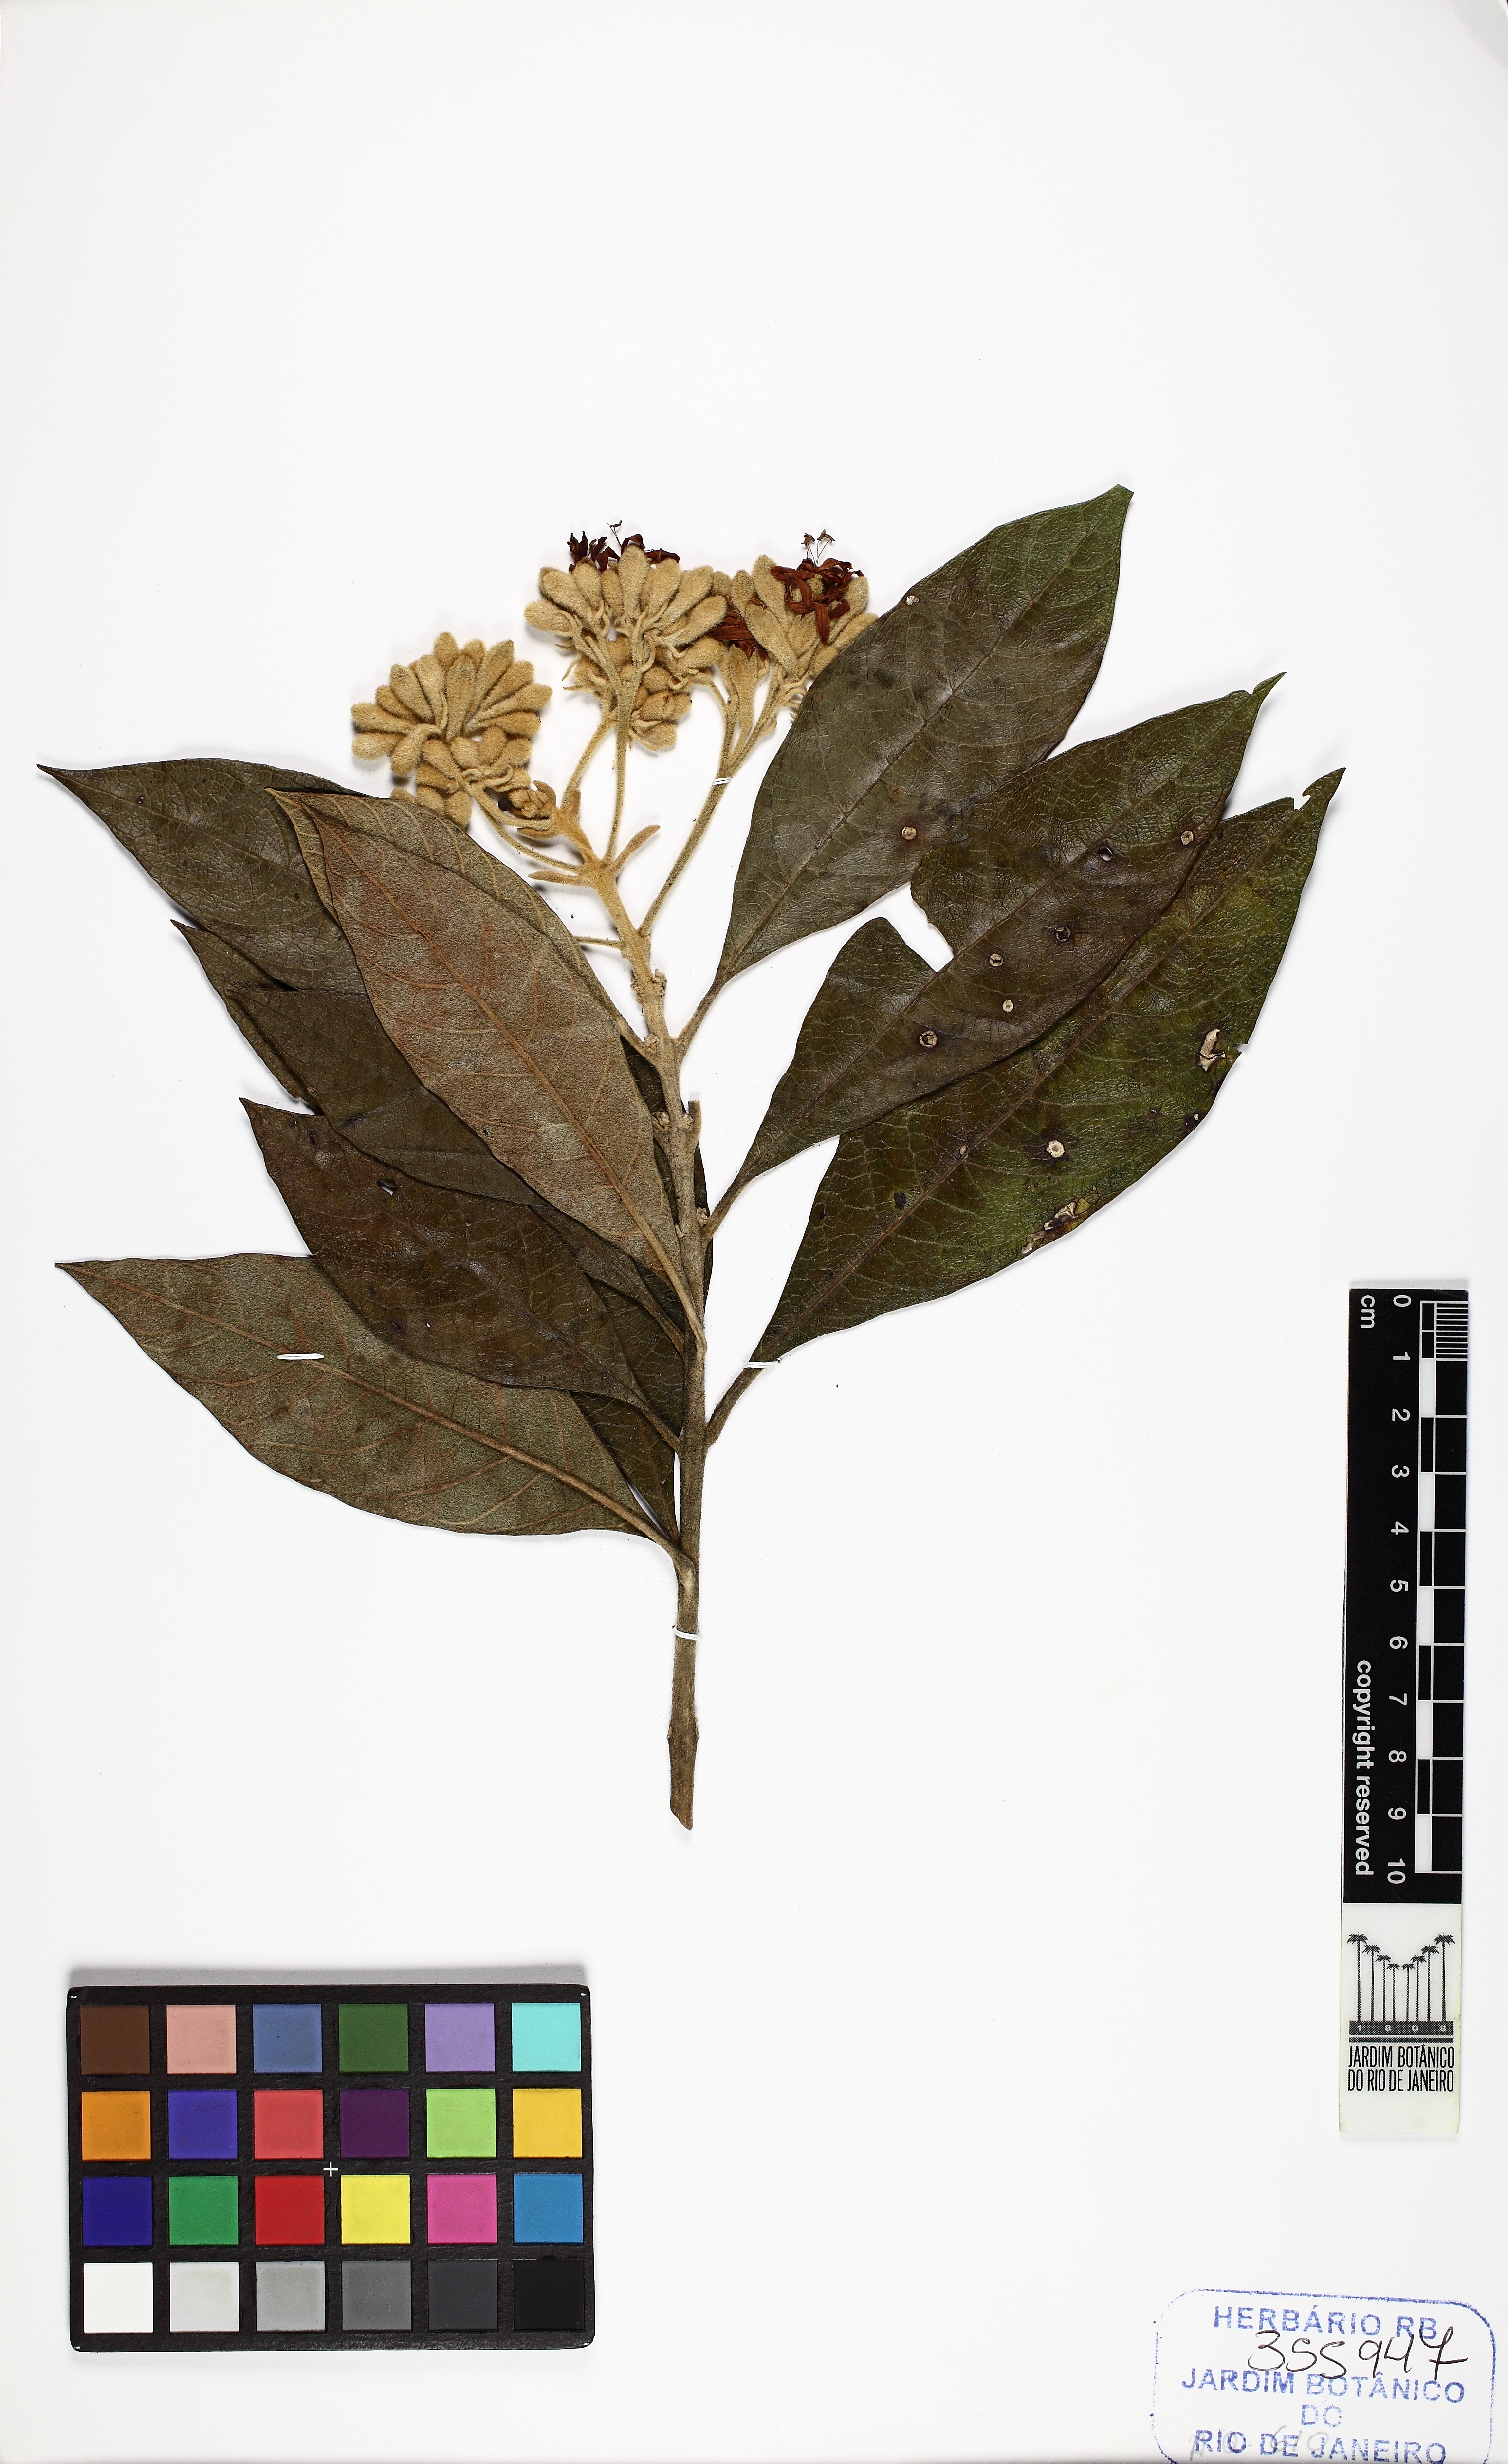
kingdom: Plantae
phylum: Tracheophyta
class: Magnoliopsida
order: Lamiales
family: Lamiaceae
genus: Aegiphila
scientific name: Aegiphila
